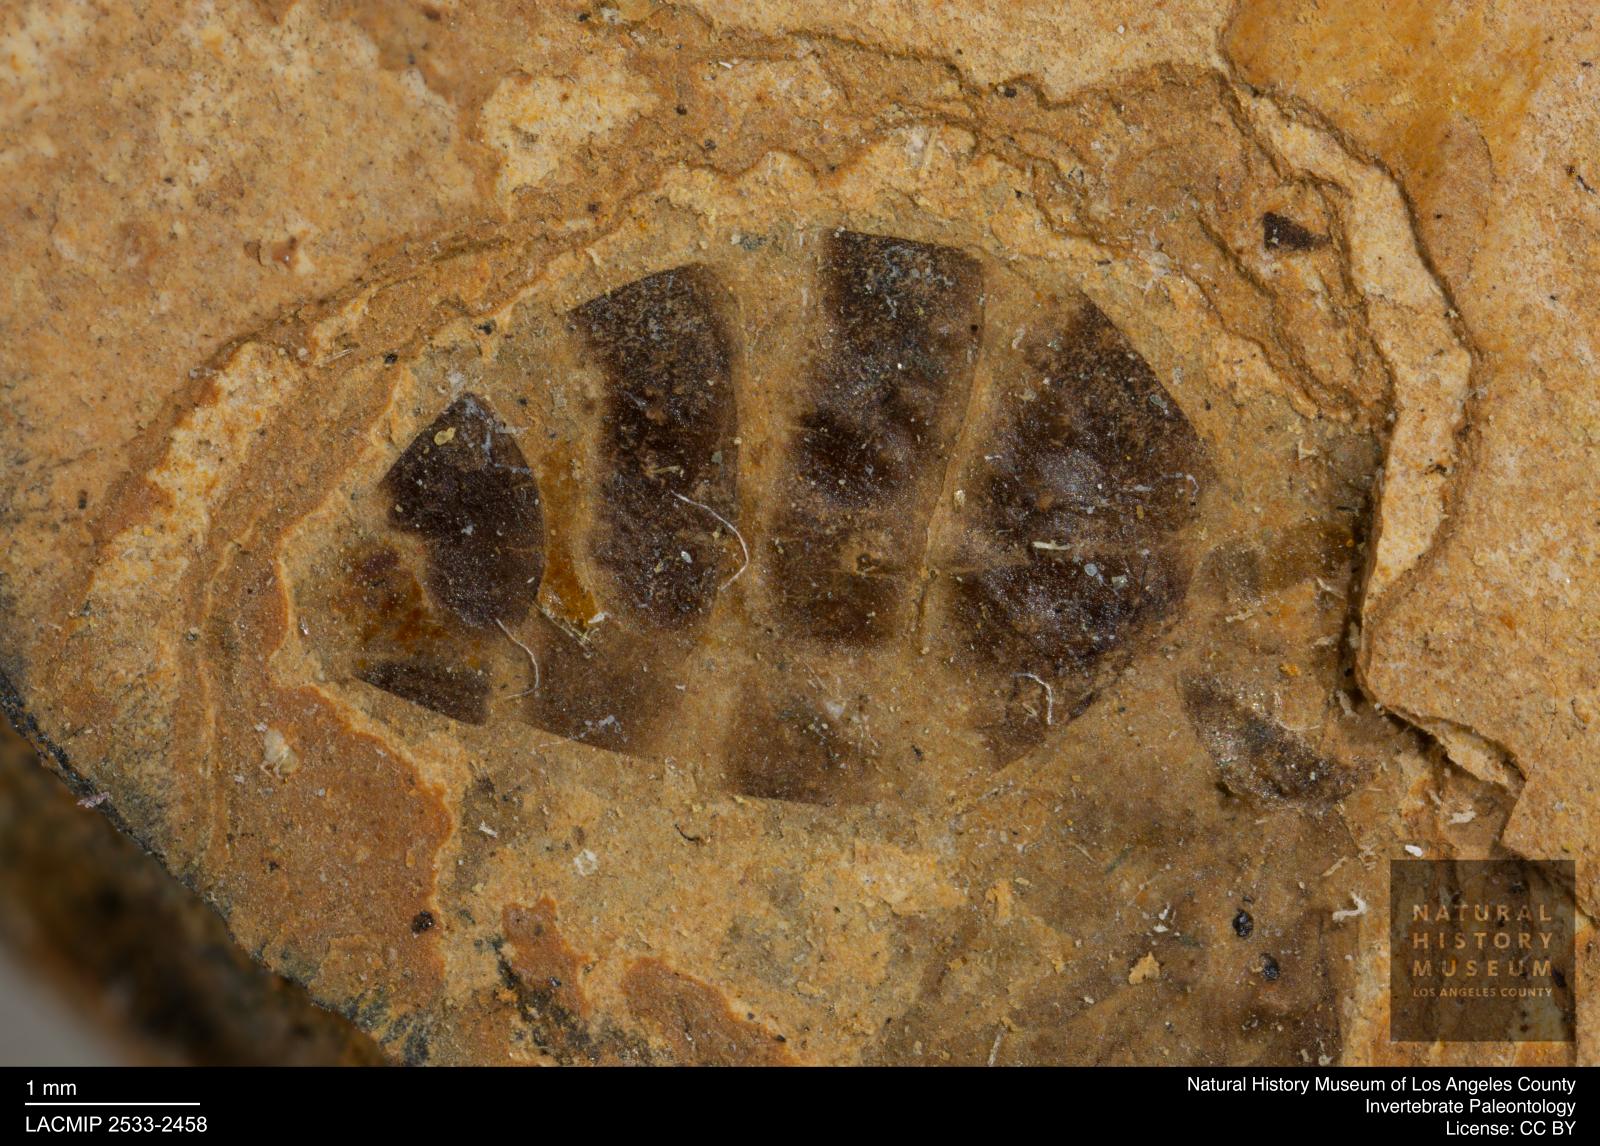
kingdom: Animalia
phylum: Arthropoda
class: Insecta
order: Hymenoptera
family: Formicidae
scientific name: Formicidae
